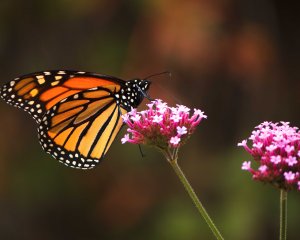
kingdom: Animalia
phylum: Arthropoda
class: Insecta
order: Lepidoptera
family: Nymphalidae
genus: Danaus
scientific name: Danaus plexippus
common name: Monarch
